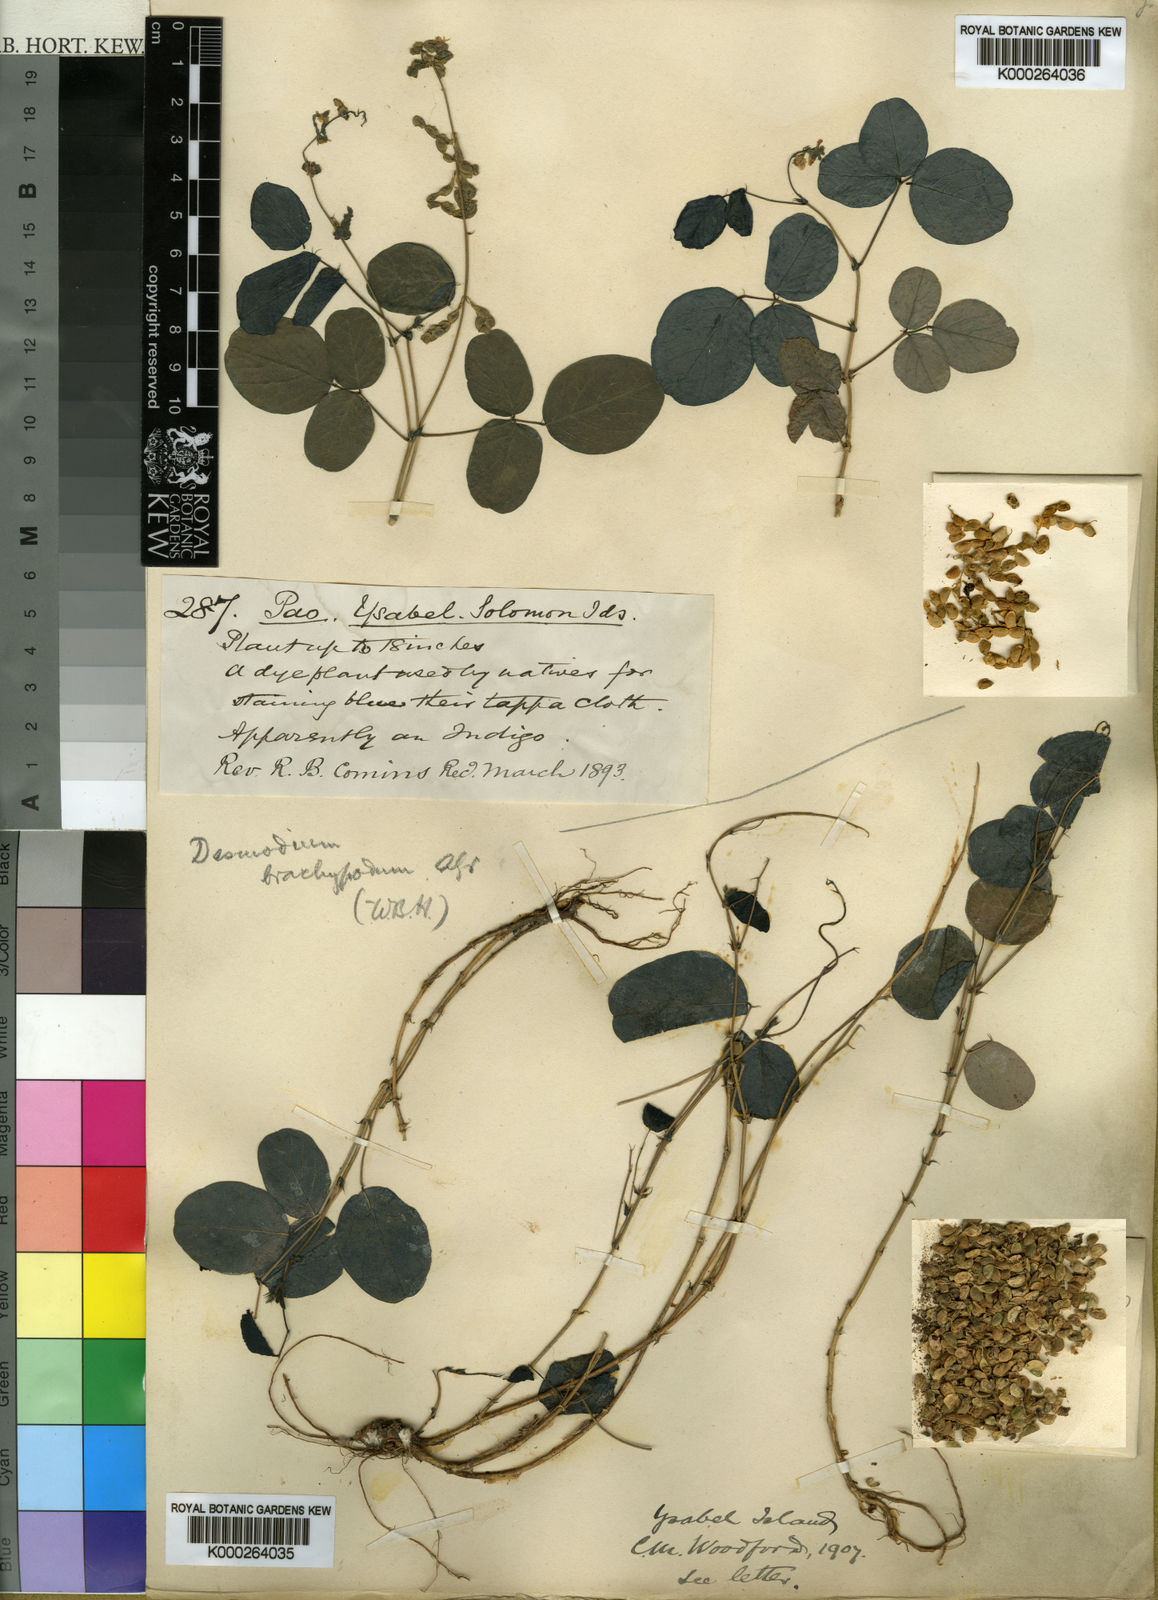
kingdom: Plantae
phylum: Tracheophyta
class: Magnoliopsida
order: Fabales
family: Fabaceae
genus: Oxytes
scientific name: Oxytes brachypoda
